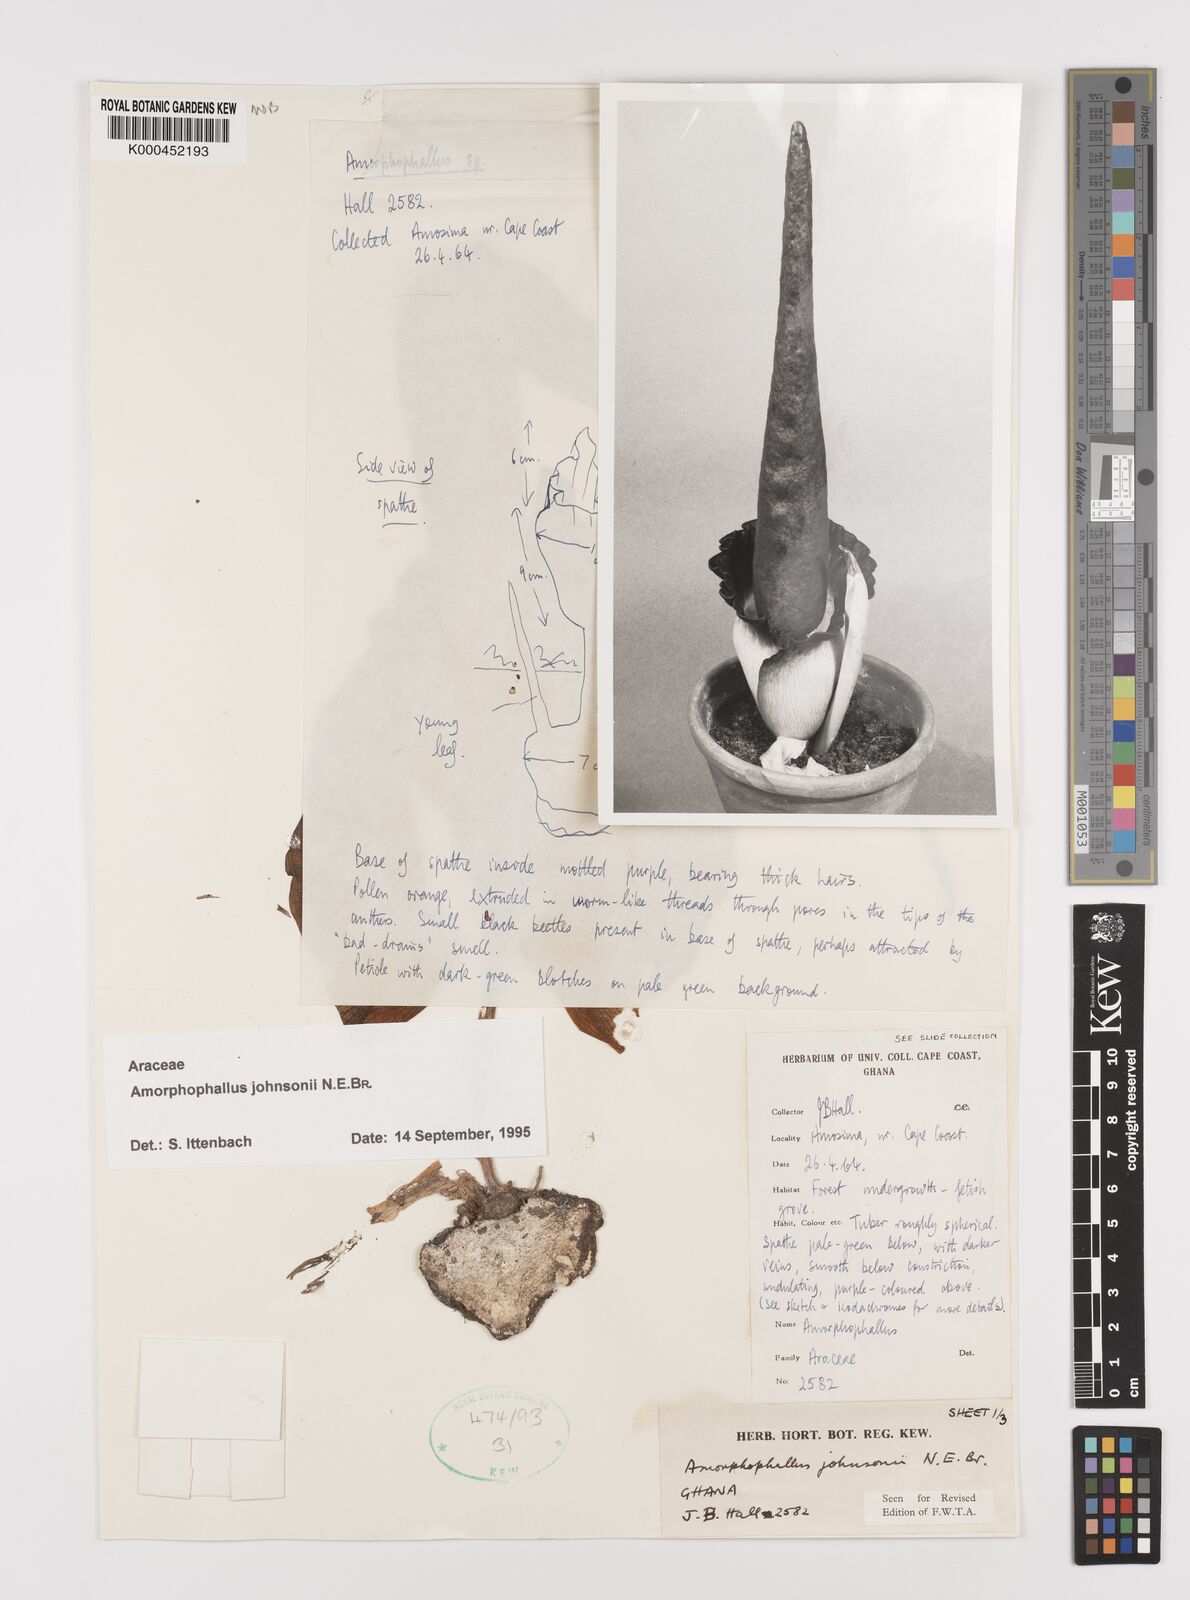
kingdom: Plantae
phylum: Tracheophyta
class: Liliopsida
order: Alismatales
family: Araceae
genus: Amorphophallus
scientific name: Amorphophallus johnsonii
